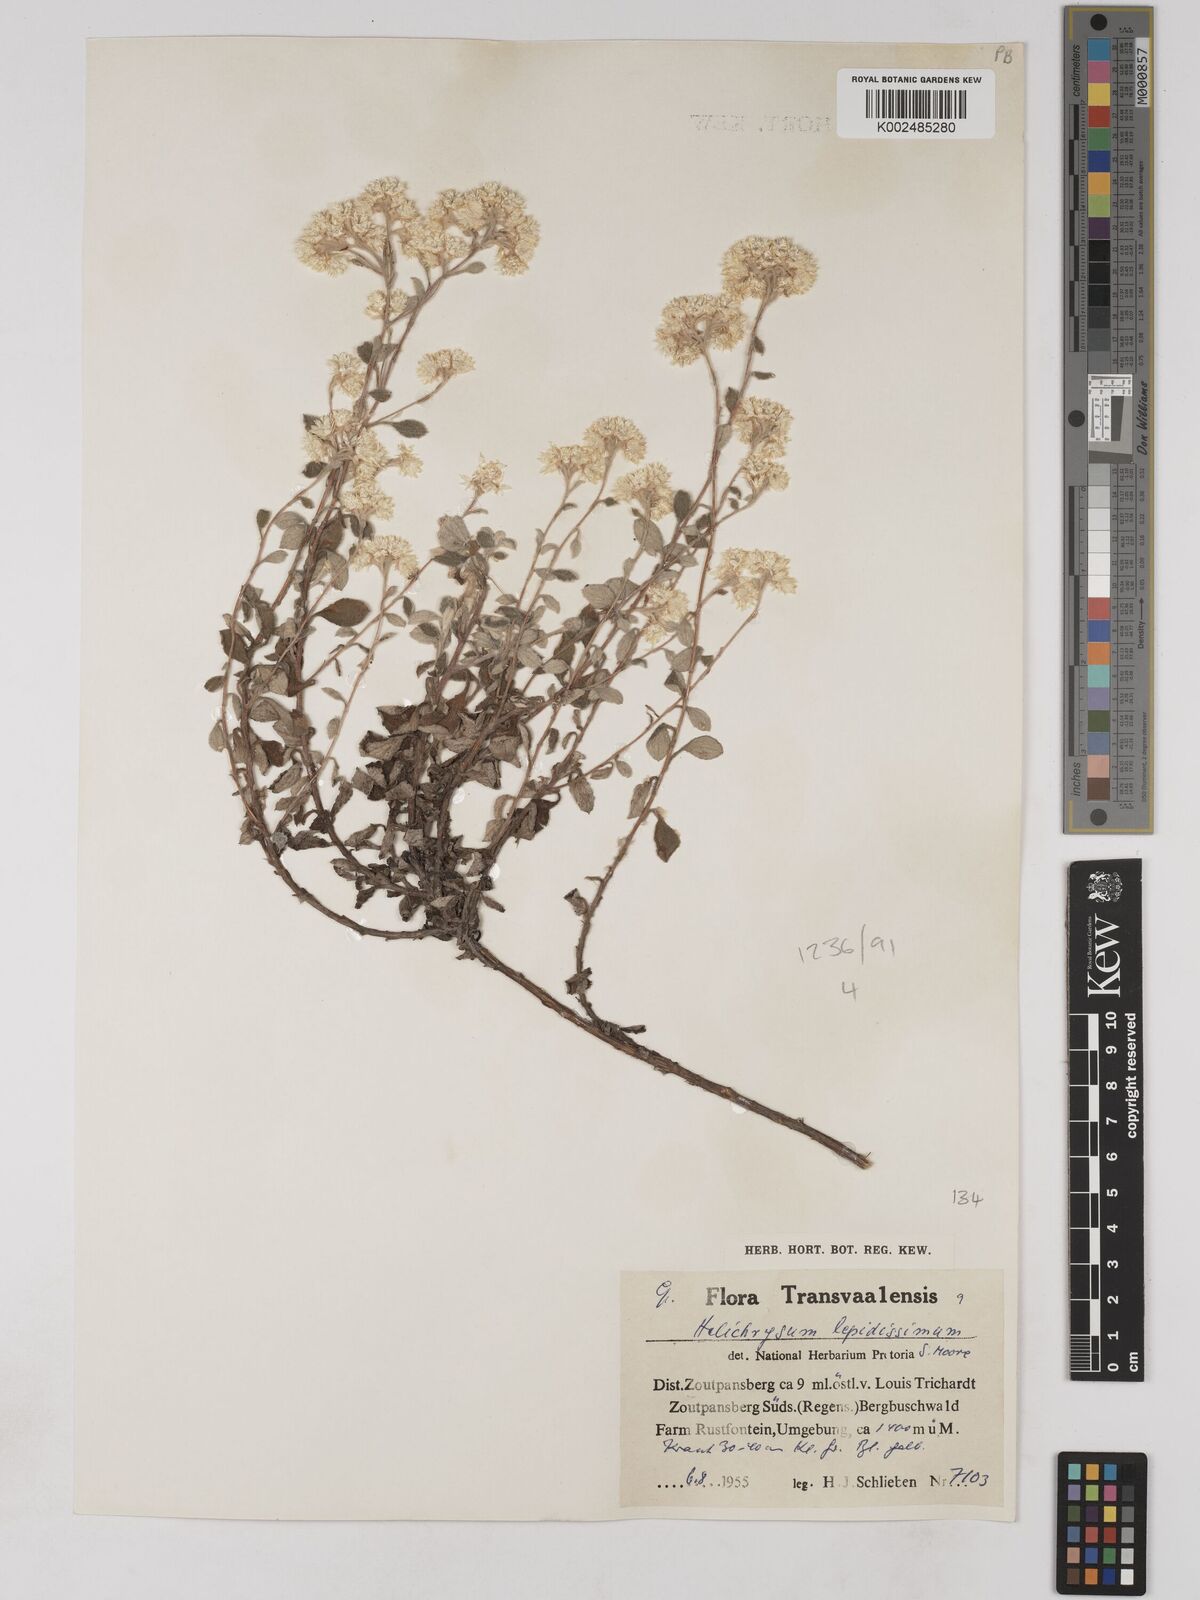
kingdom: Plantae
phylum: Tracheophyta
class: Magnoliopsida
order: Asterales
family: Asteraceae
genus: Helichrysum
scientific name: Helichrysum lepidissimum
